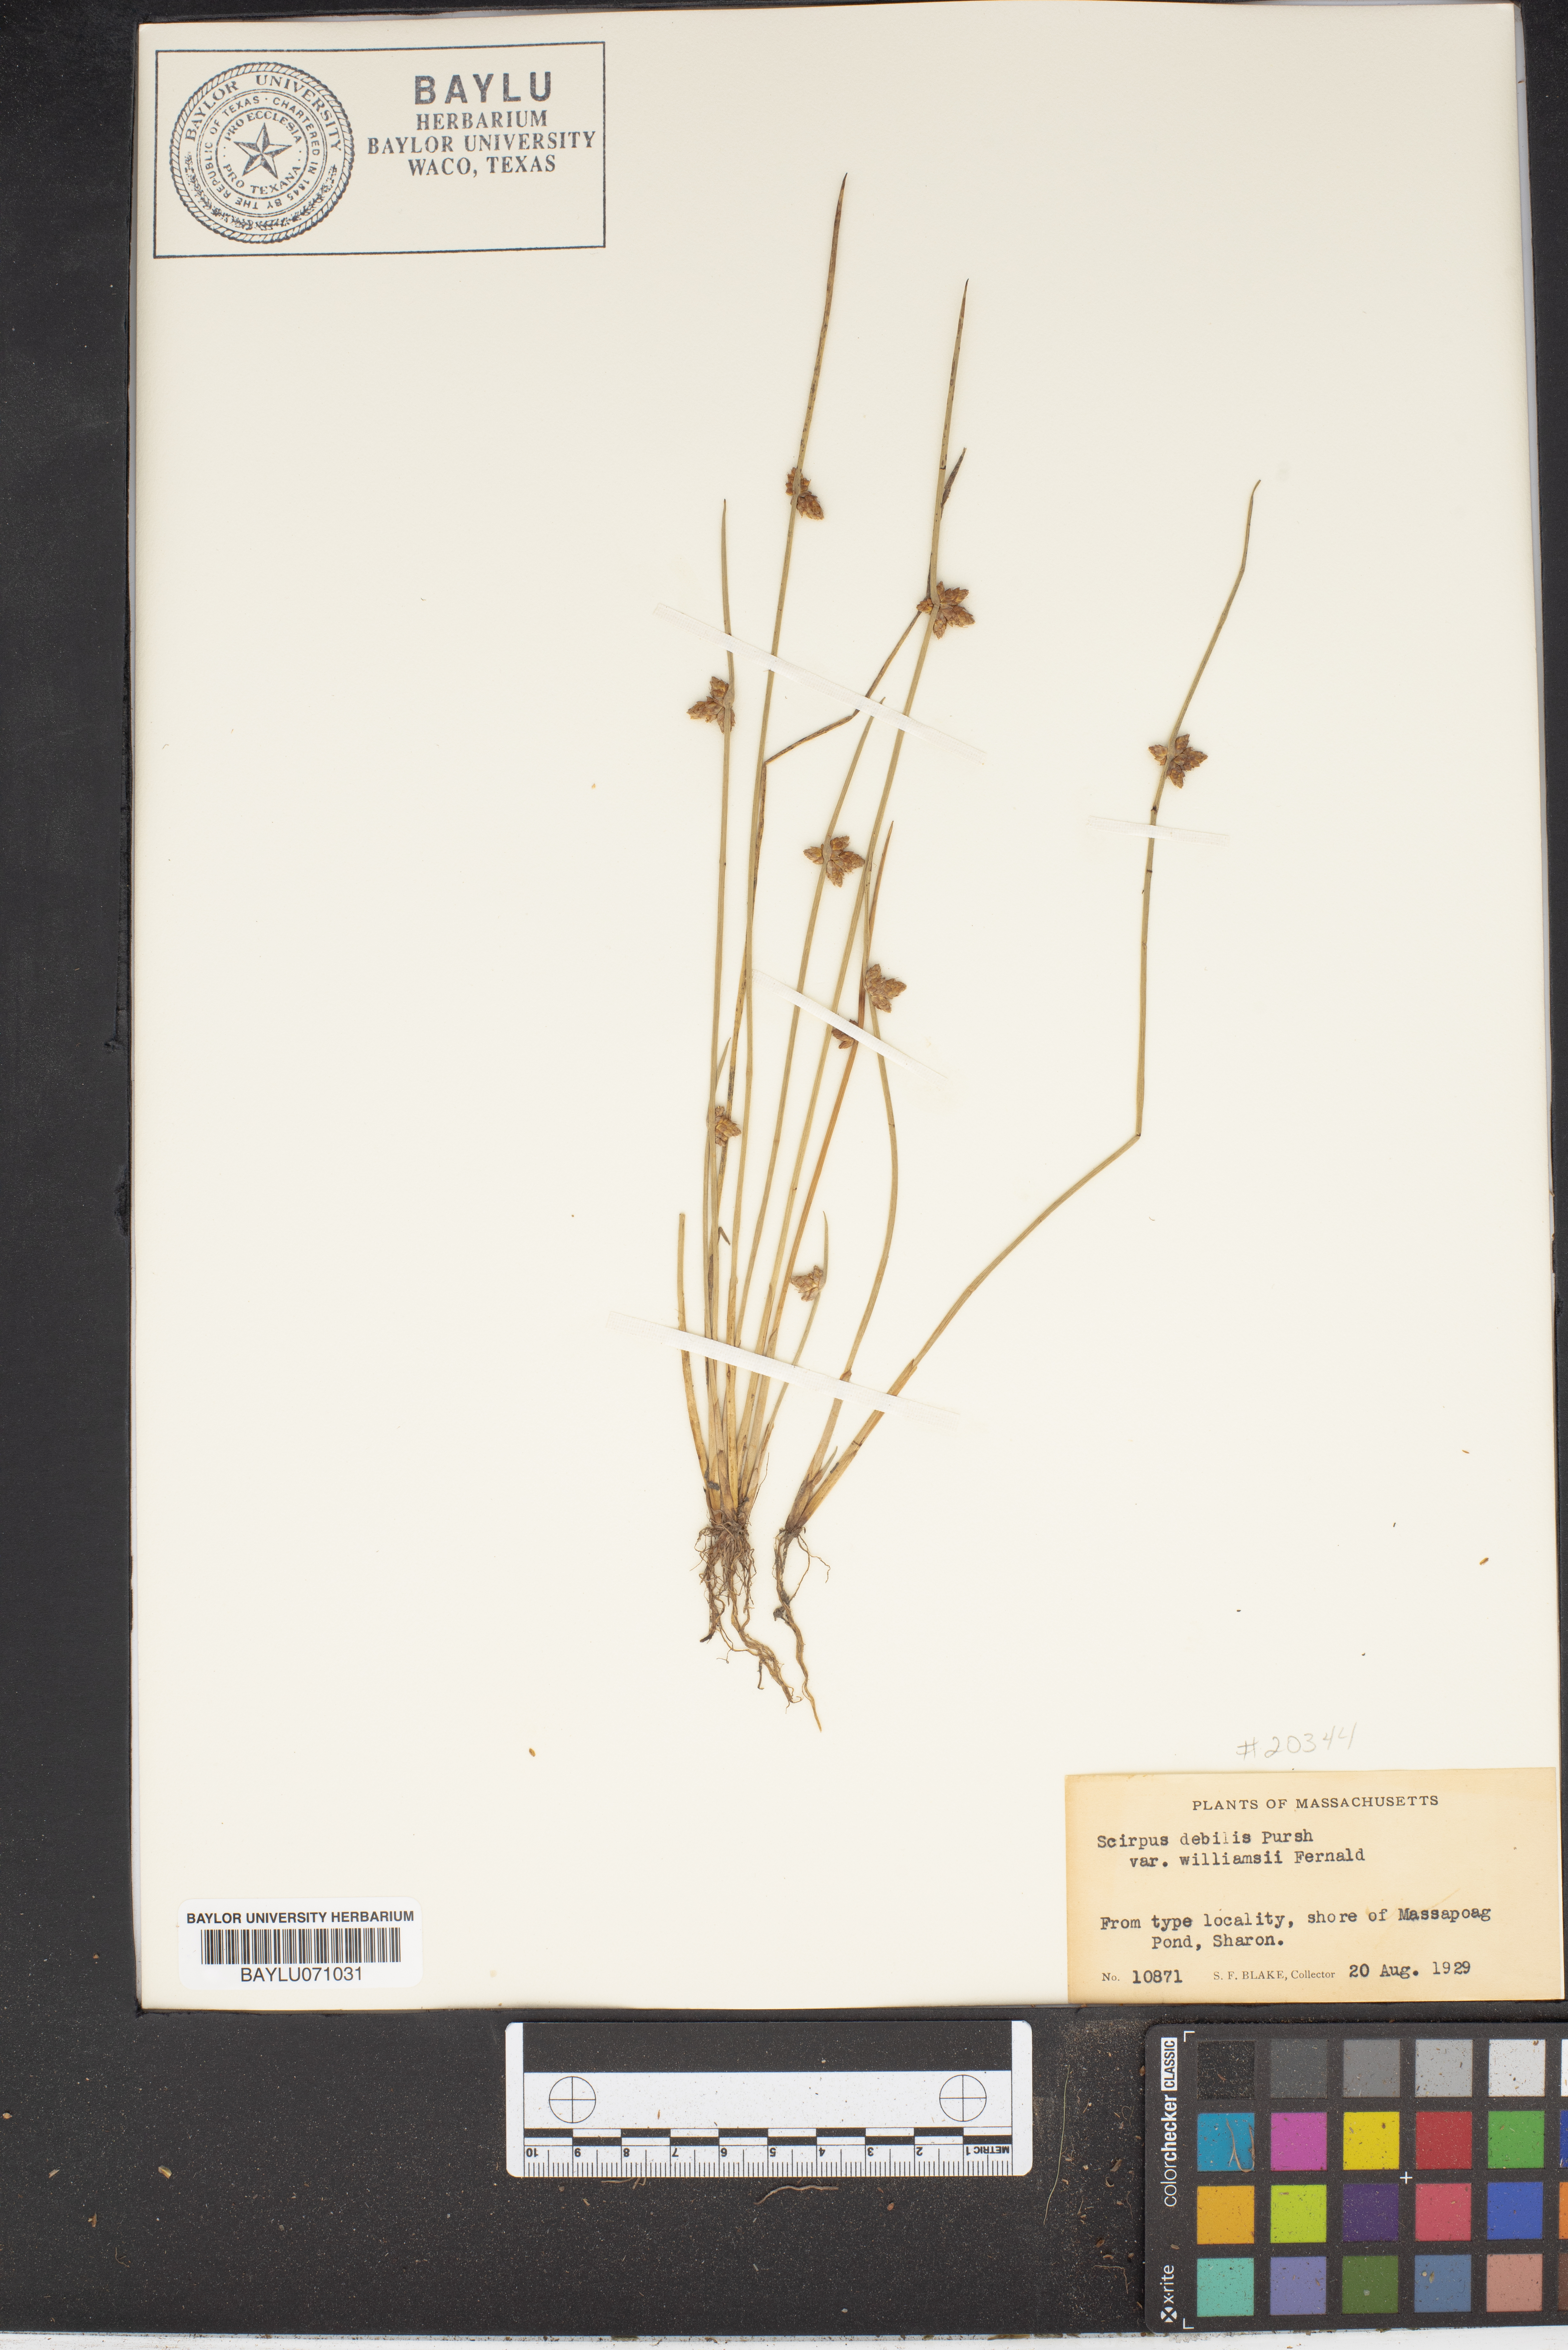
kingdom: Plantae
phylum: Tracheophyta
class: Liliopsida
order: Poales
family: Cyperaceae
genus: Schoenoplectiella
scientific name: Schoenoplectiella purshiana
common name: Weak-stalked bulrush
